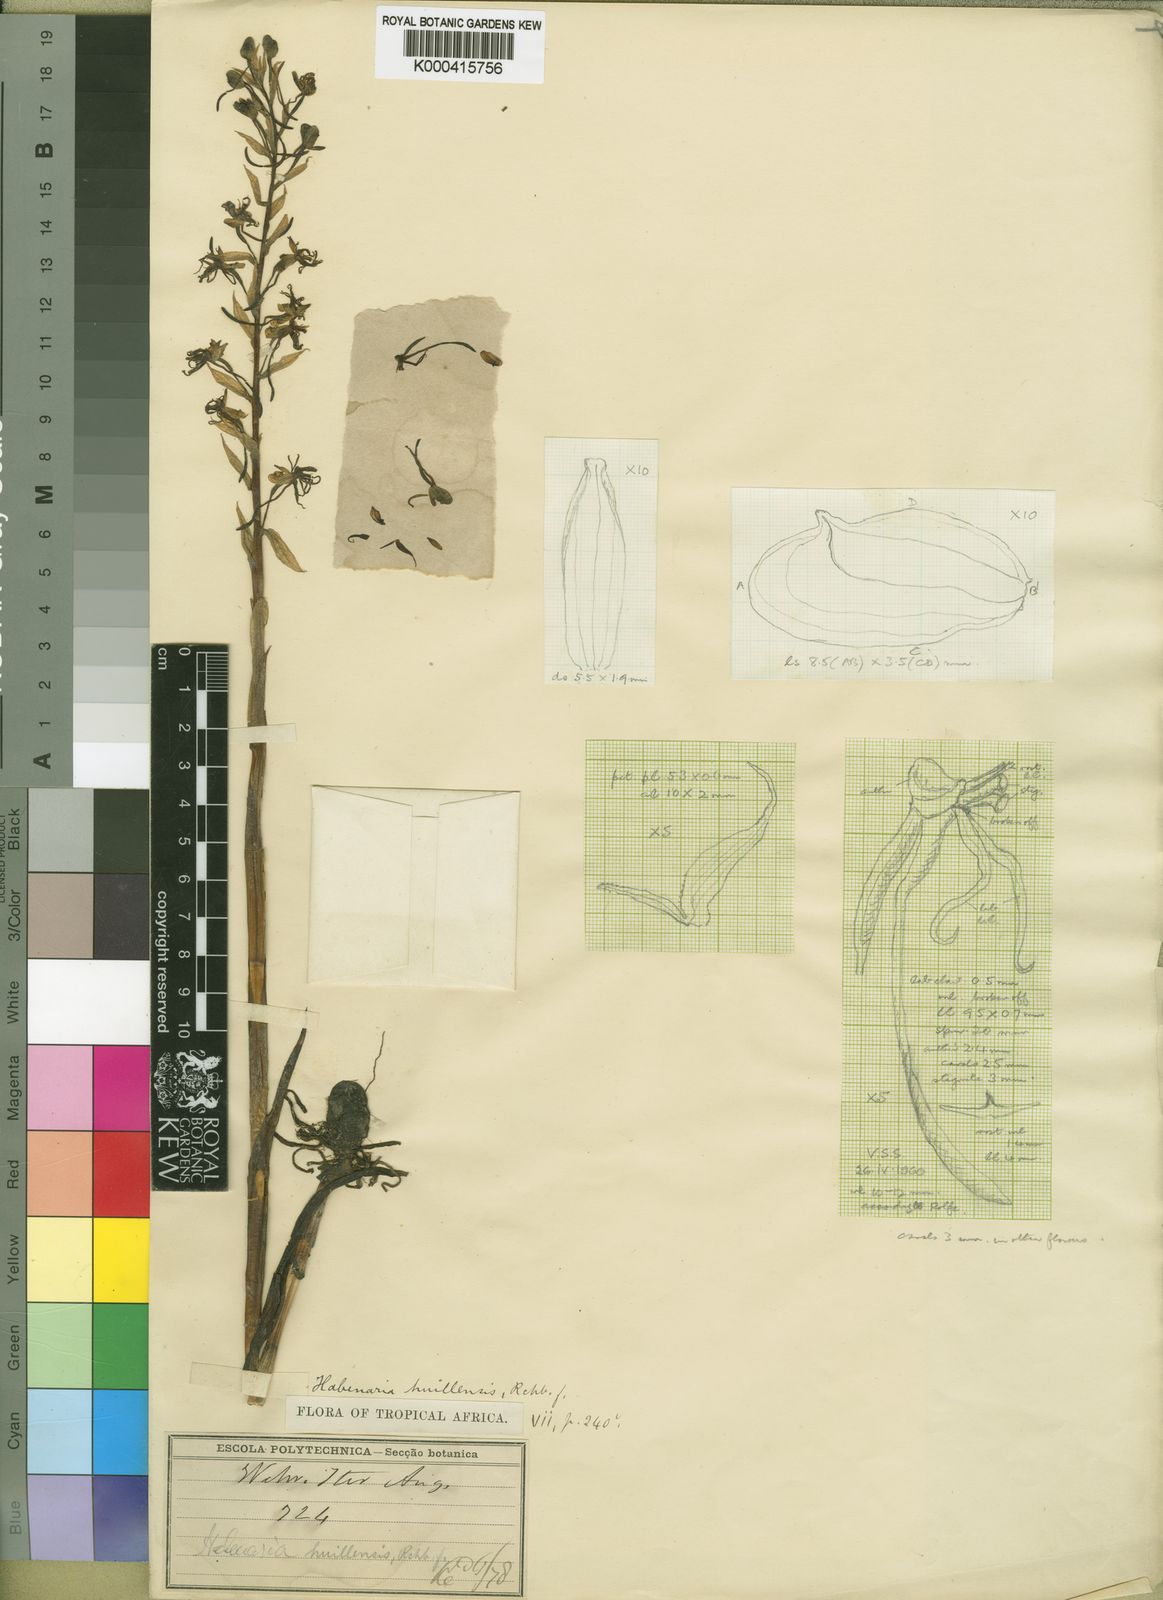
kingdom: Plantae
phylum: Tracheophyta
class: Liliopsida
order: Asparagales
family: Orchidaceae
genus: Habenaria
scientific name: Habenaria huillensis
